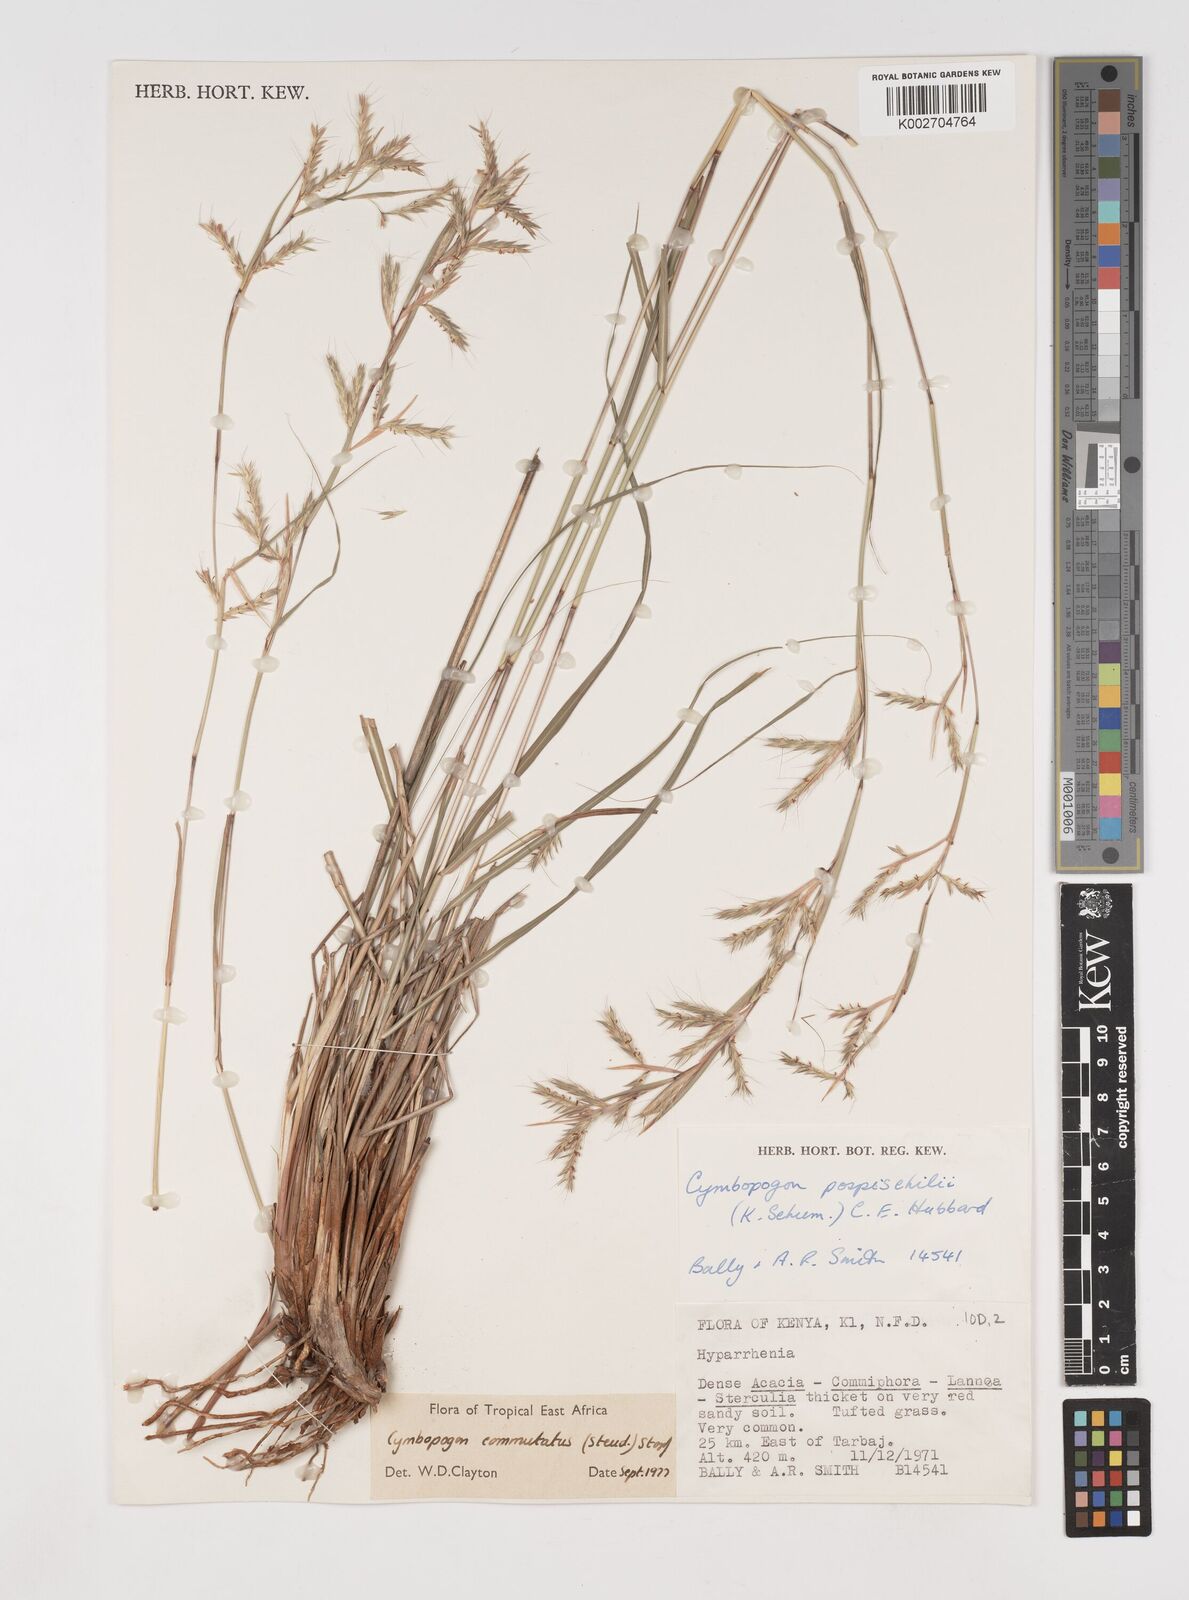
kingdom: Plantae
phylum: Tracheophyta
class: Liliopsida
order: Poales
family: Poaceae
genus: Cymbopogon
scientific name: Cymbopogon pospischilii
